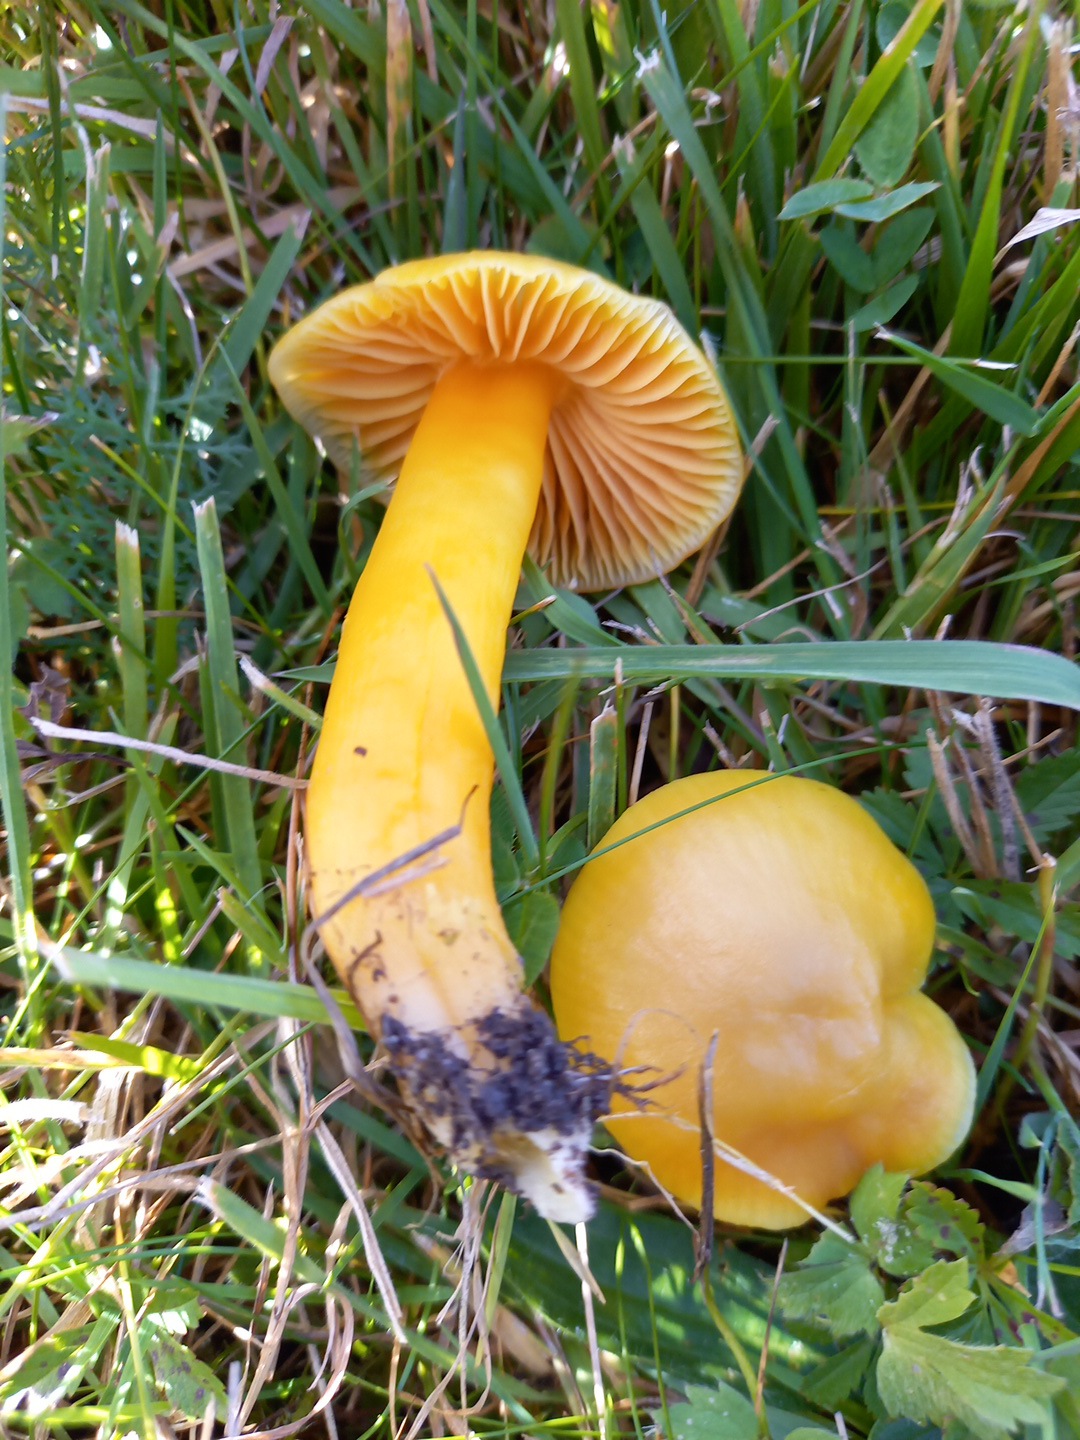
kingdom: Fungi
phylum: Basidiomycota
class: Agaricomycetes
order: Agaricales
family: Hygrophoraceae
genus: Hygrocybe
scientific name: Hygrocybe quieta
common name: tæge-vokshat
